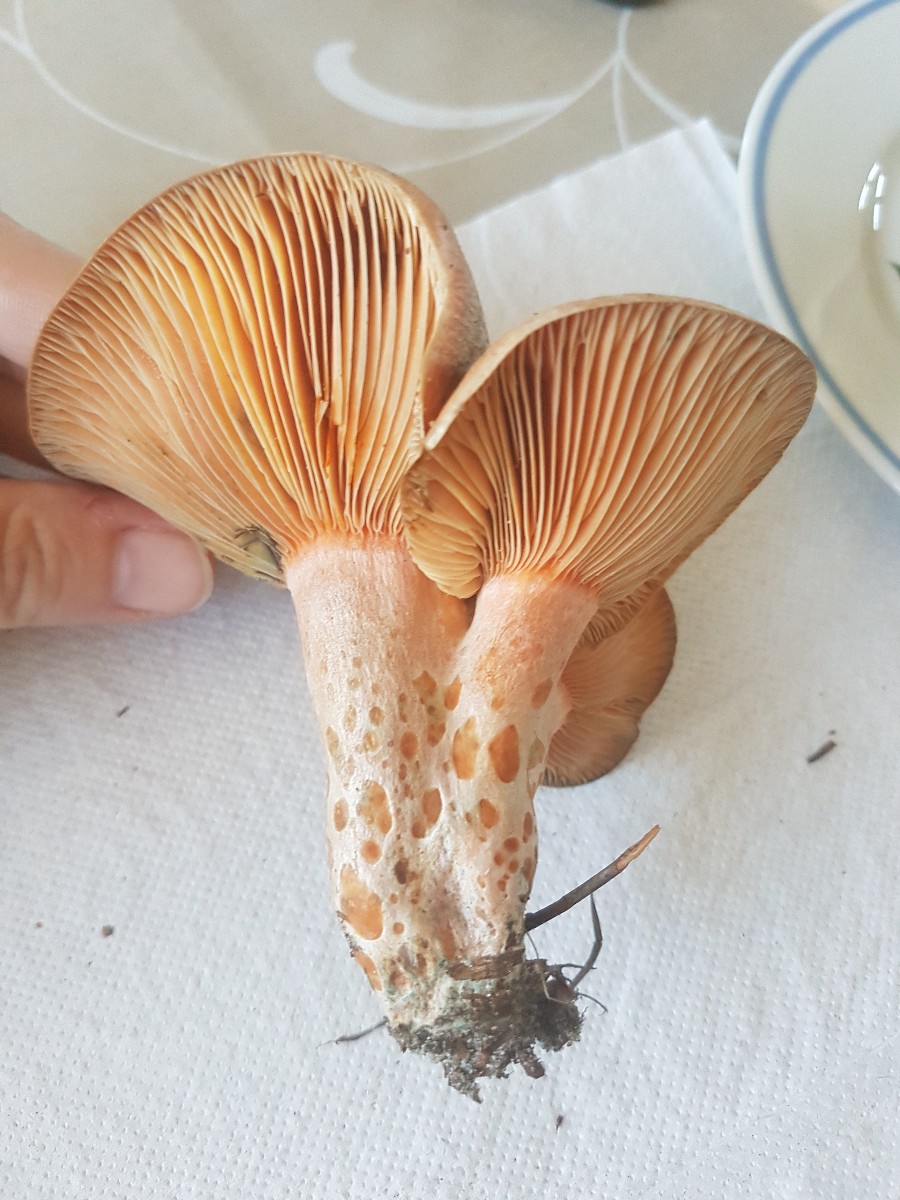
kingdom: Fungi
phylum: Basidiomycota
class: Agaricomycetes
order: Russulales
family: Russulaceae
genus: Lactarius
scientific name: Lactarius deliciosus
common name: velsmagende mælkehat
